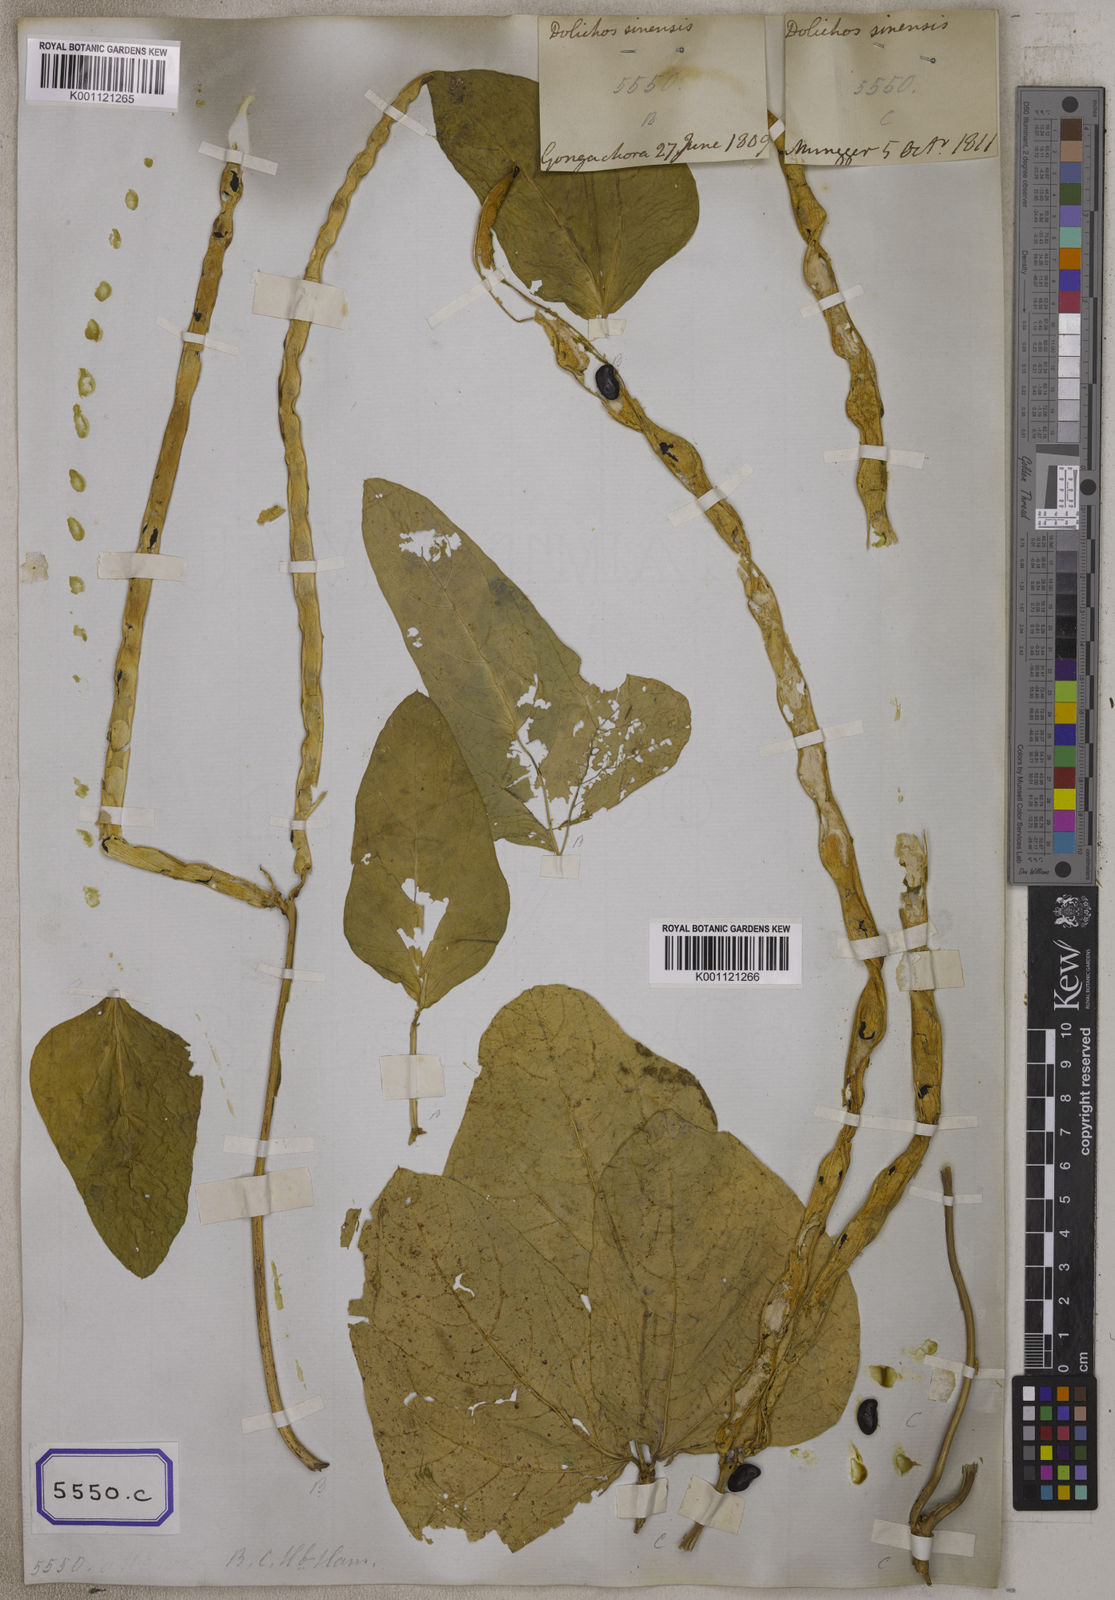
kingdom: Plantae
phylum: Tracheophyta
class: Magnoliopsida
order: Fabales
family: Fabaceae
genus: Vigna
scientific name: Vigna unguiculata
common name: Cowpea
